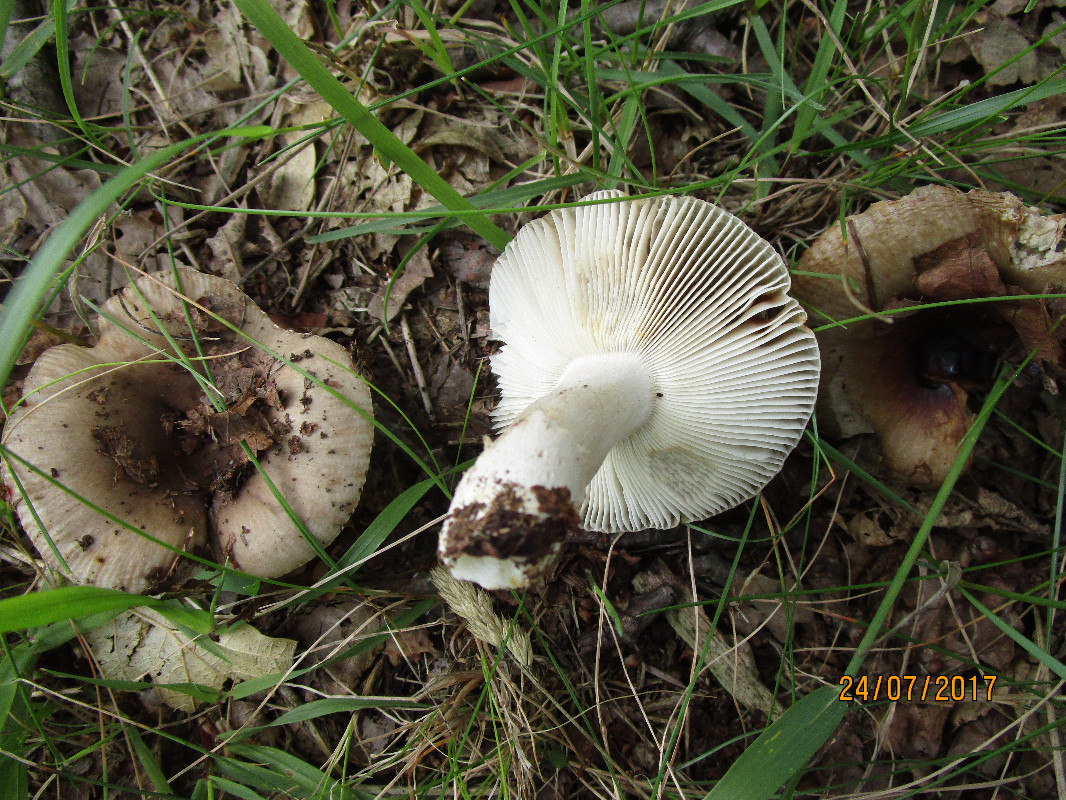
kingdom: Fungi
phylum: Basidiomycota
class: Agaricomycetes
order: Russulales
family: Russulaceae
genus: Russula
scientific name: Russula amoenolens
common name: skarp kam-skørhat
